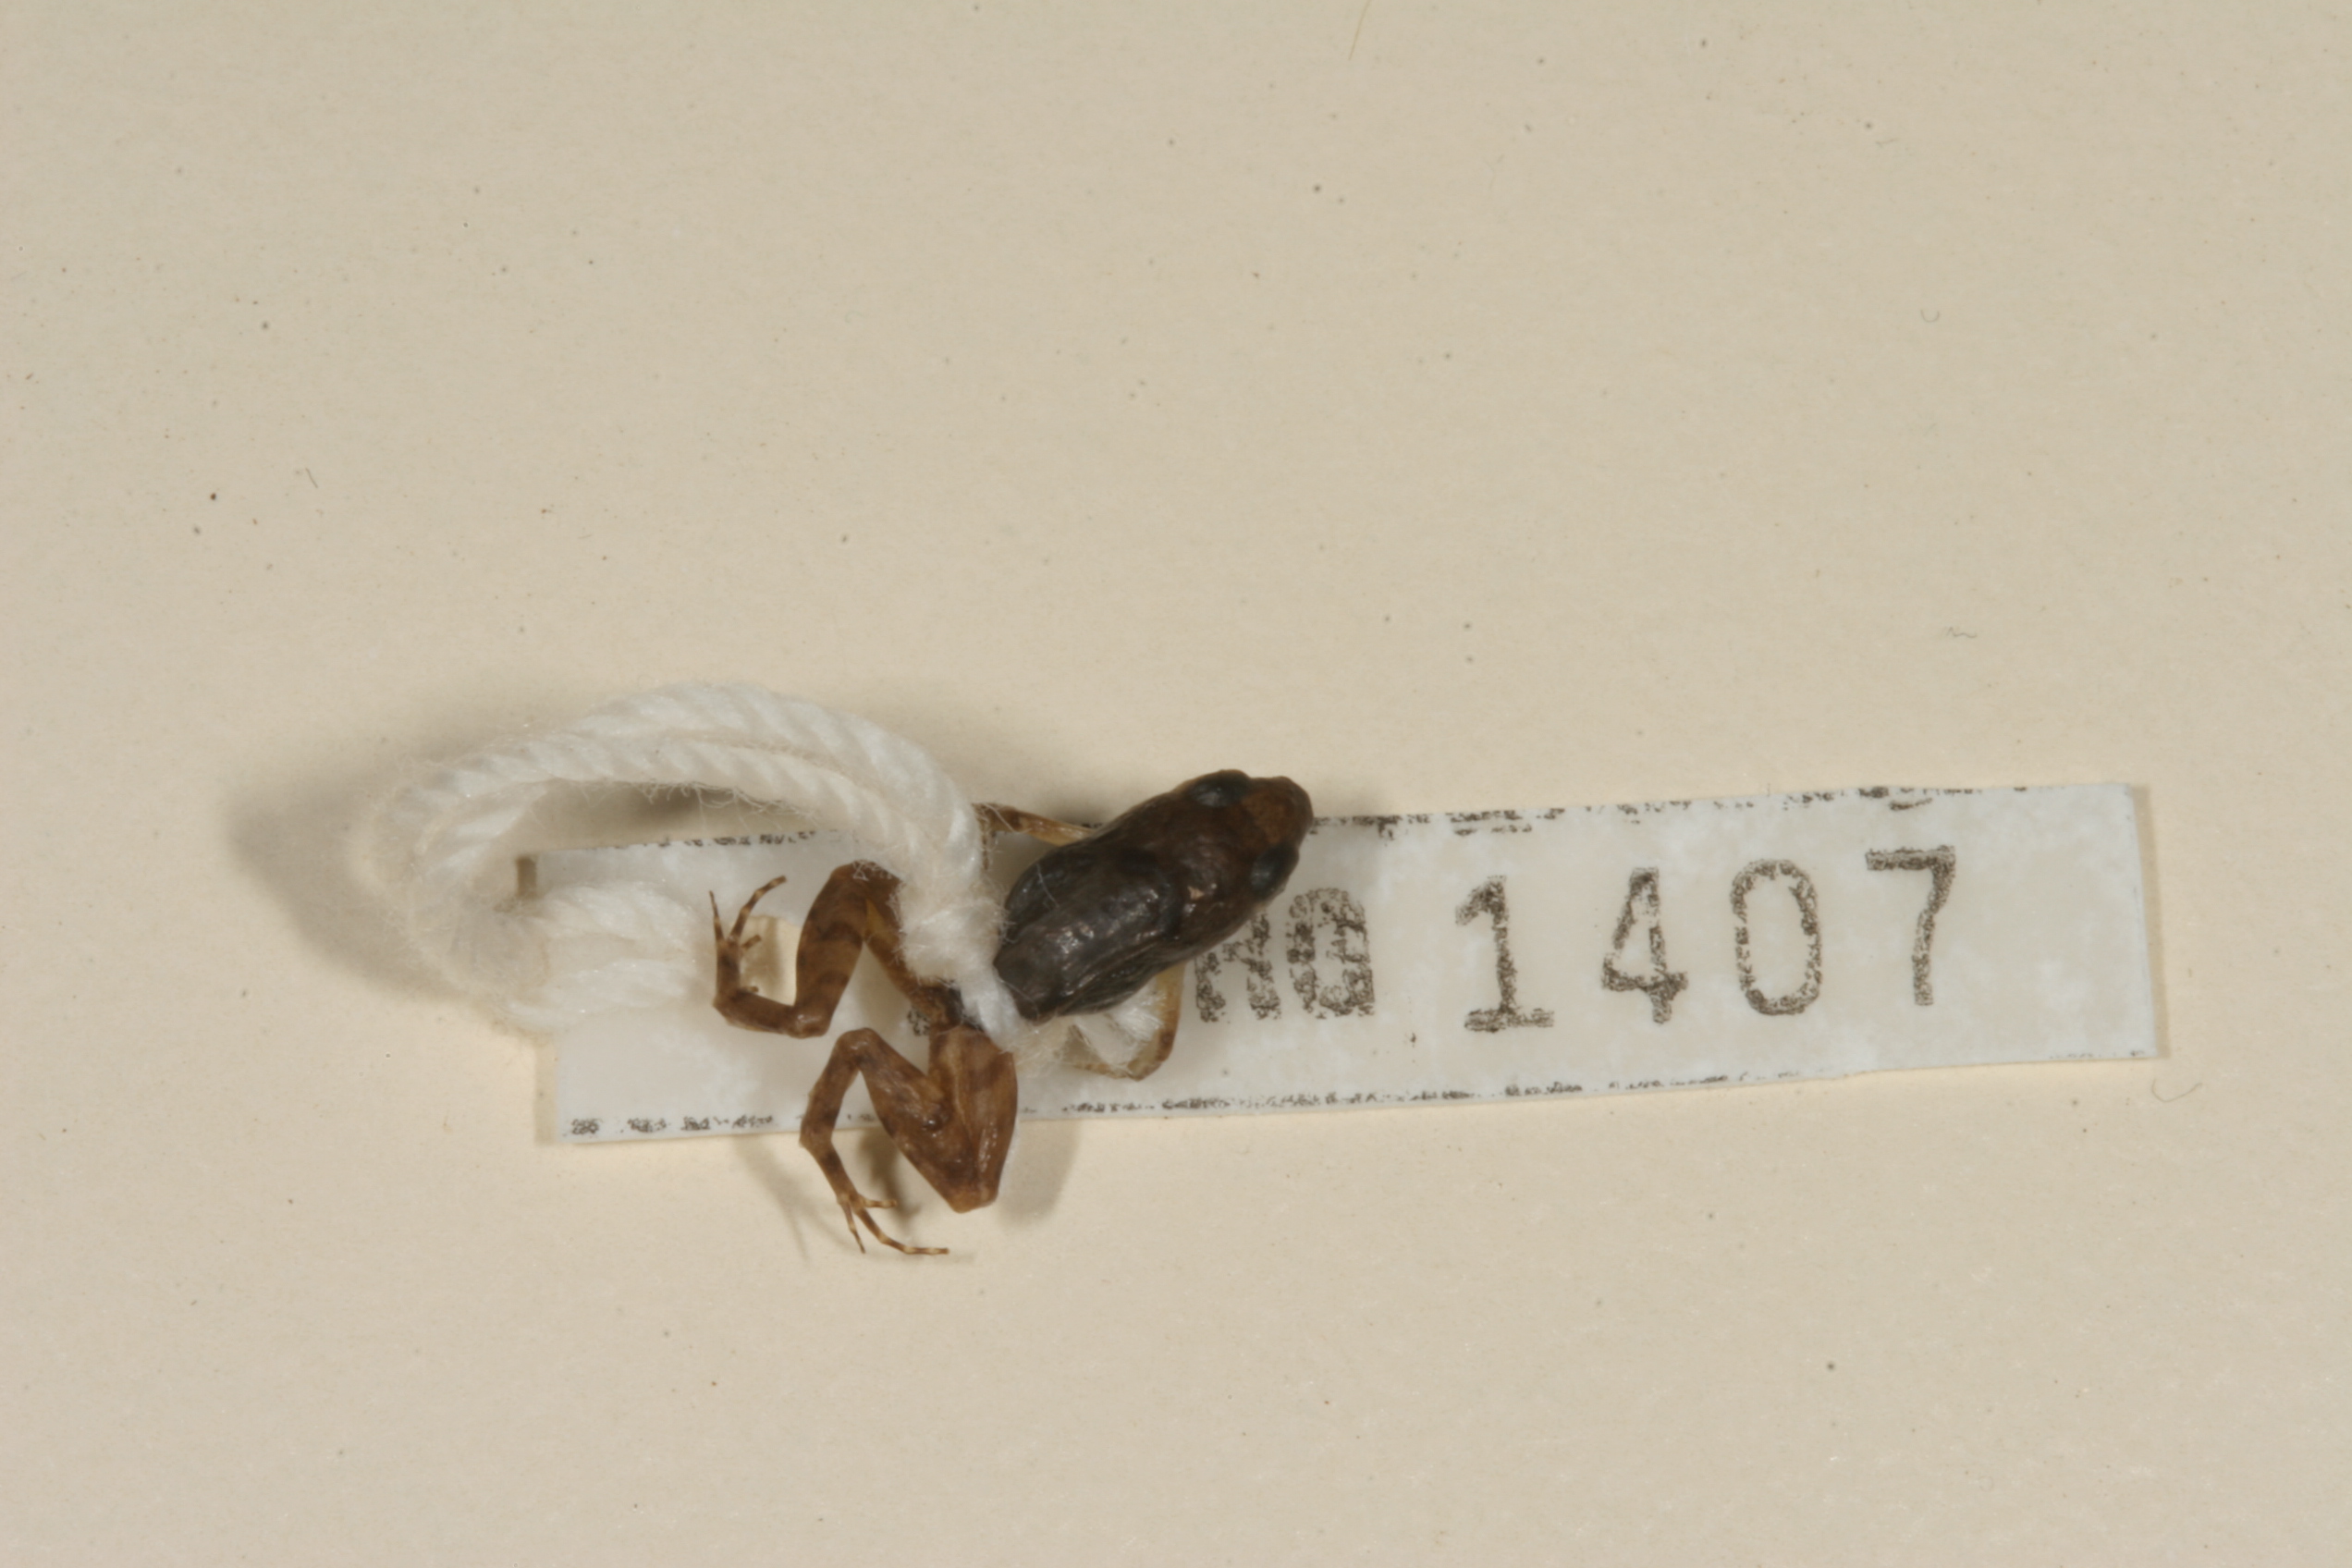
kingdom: Animalia
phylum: Chordata
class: Amphibia
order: Anura
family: Phrynobatrachidae
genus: Phrynobatrachus
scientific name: Phrynobatrachus mababiensis
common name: Dwarf puddle frog
